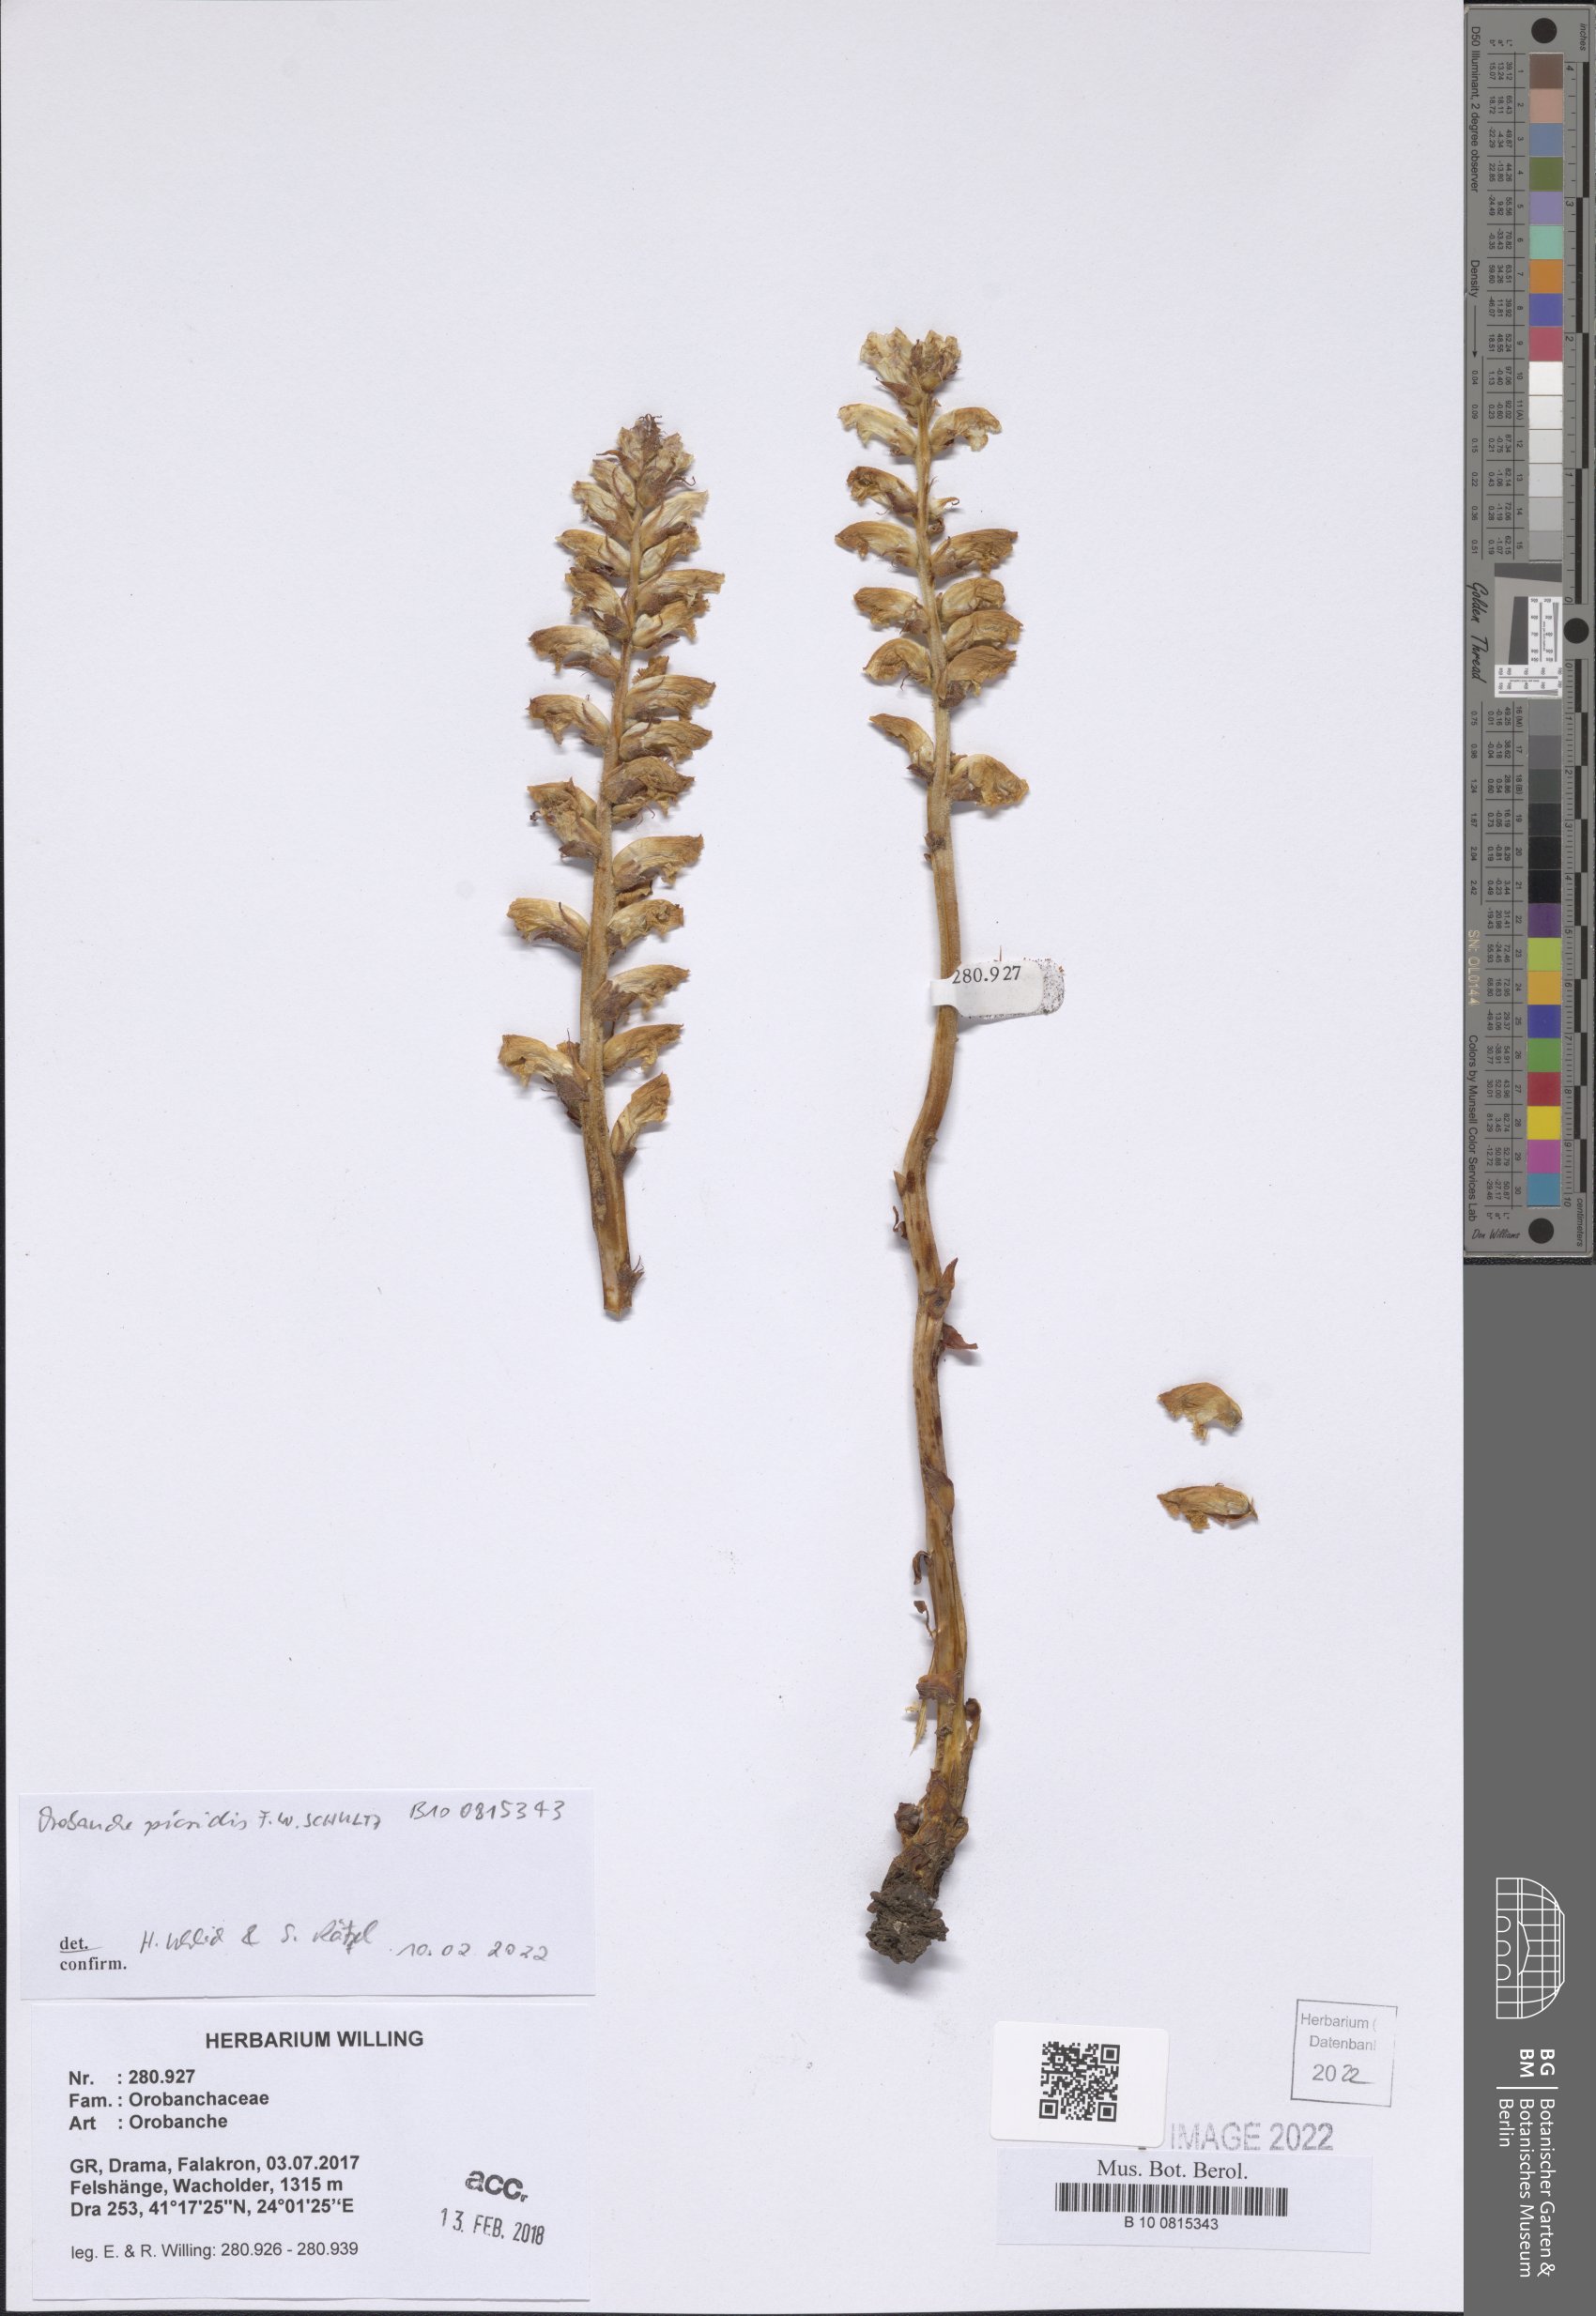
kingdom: Plantae
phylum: Tracheophyta
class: Magnoliopsida
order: Lamiales
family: Orobanchaceae
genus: Orobanche
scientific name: Orobanche picridis
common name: Oxtongue broomrape
